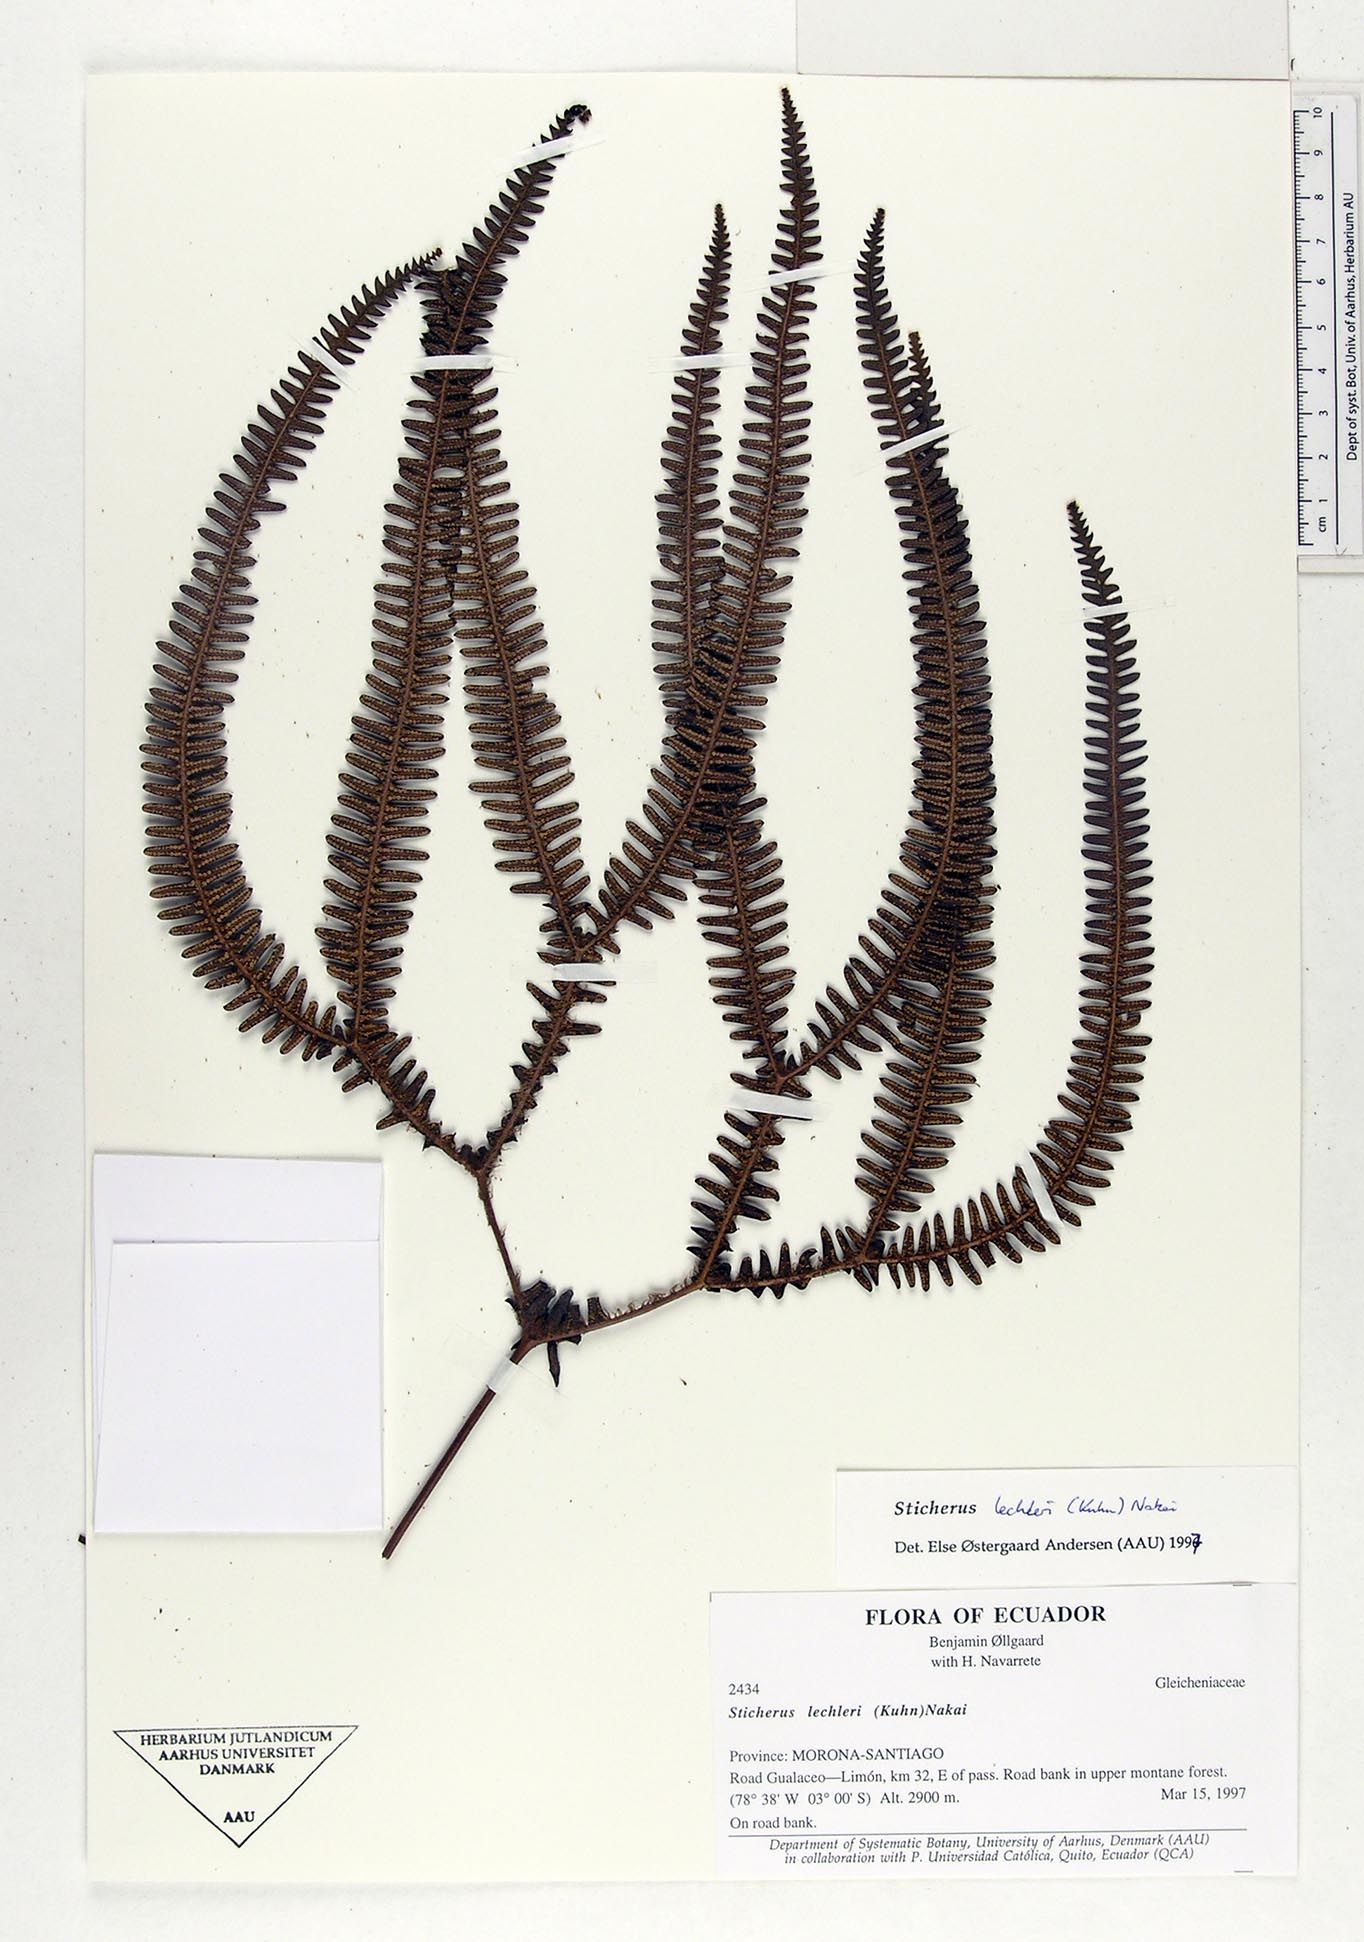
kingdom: Plantae
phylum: Tracheophyta
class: Polypodiopsida
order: Gleicheniales
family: Gleicheniaceae
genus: Sticherus
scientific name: Sticherus lechleri
